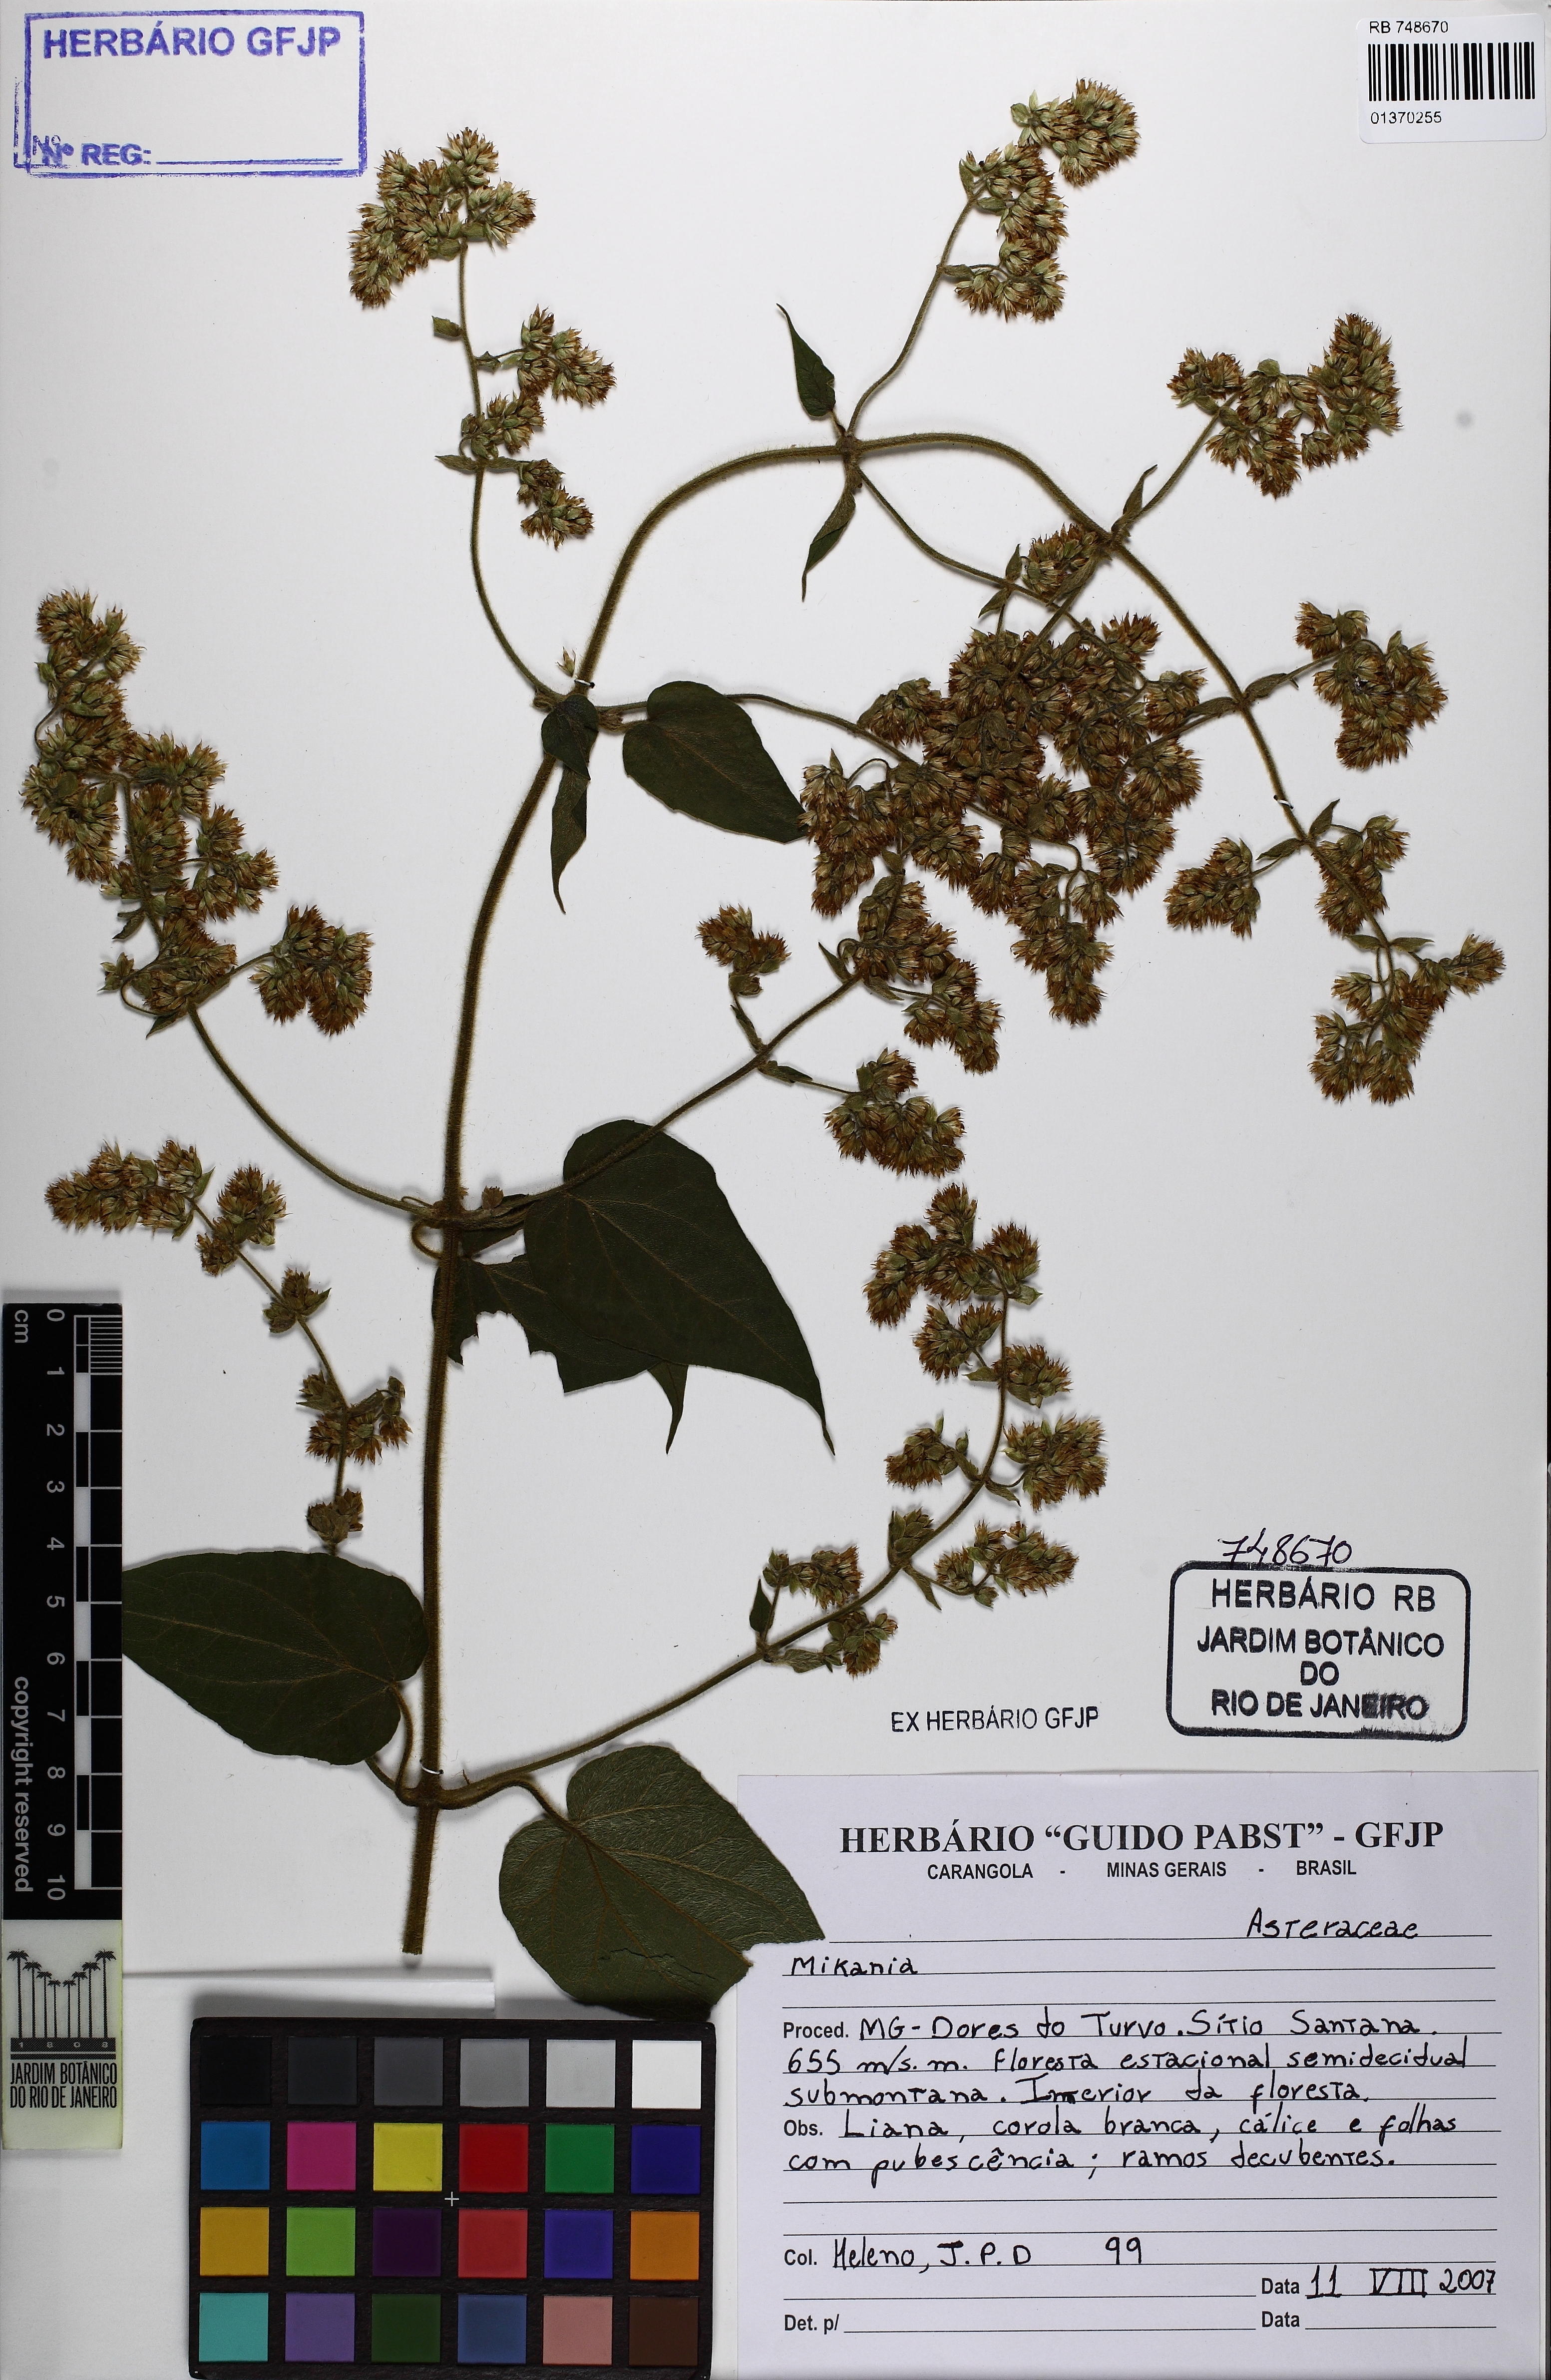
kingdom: Plantae
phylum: Tracheophyta
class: Magnoliopsida
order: Asterales
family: Asteraceae
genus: Mikania
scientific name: Mikania
